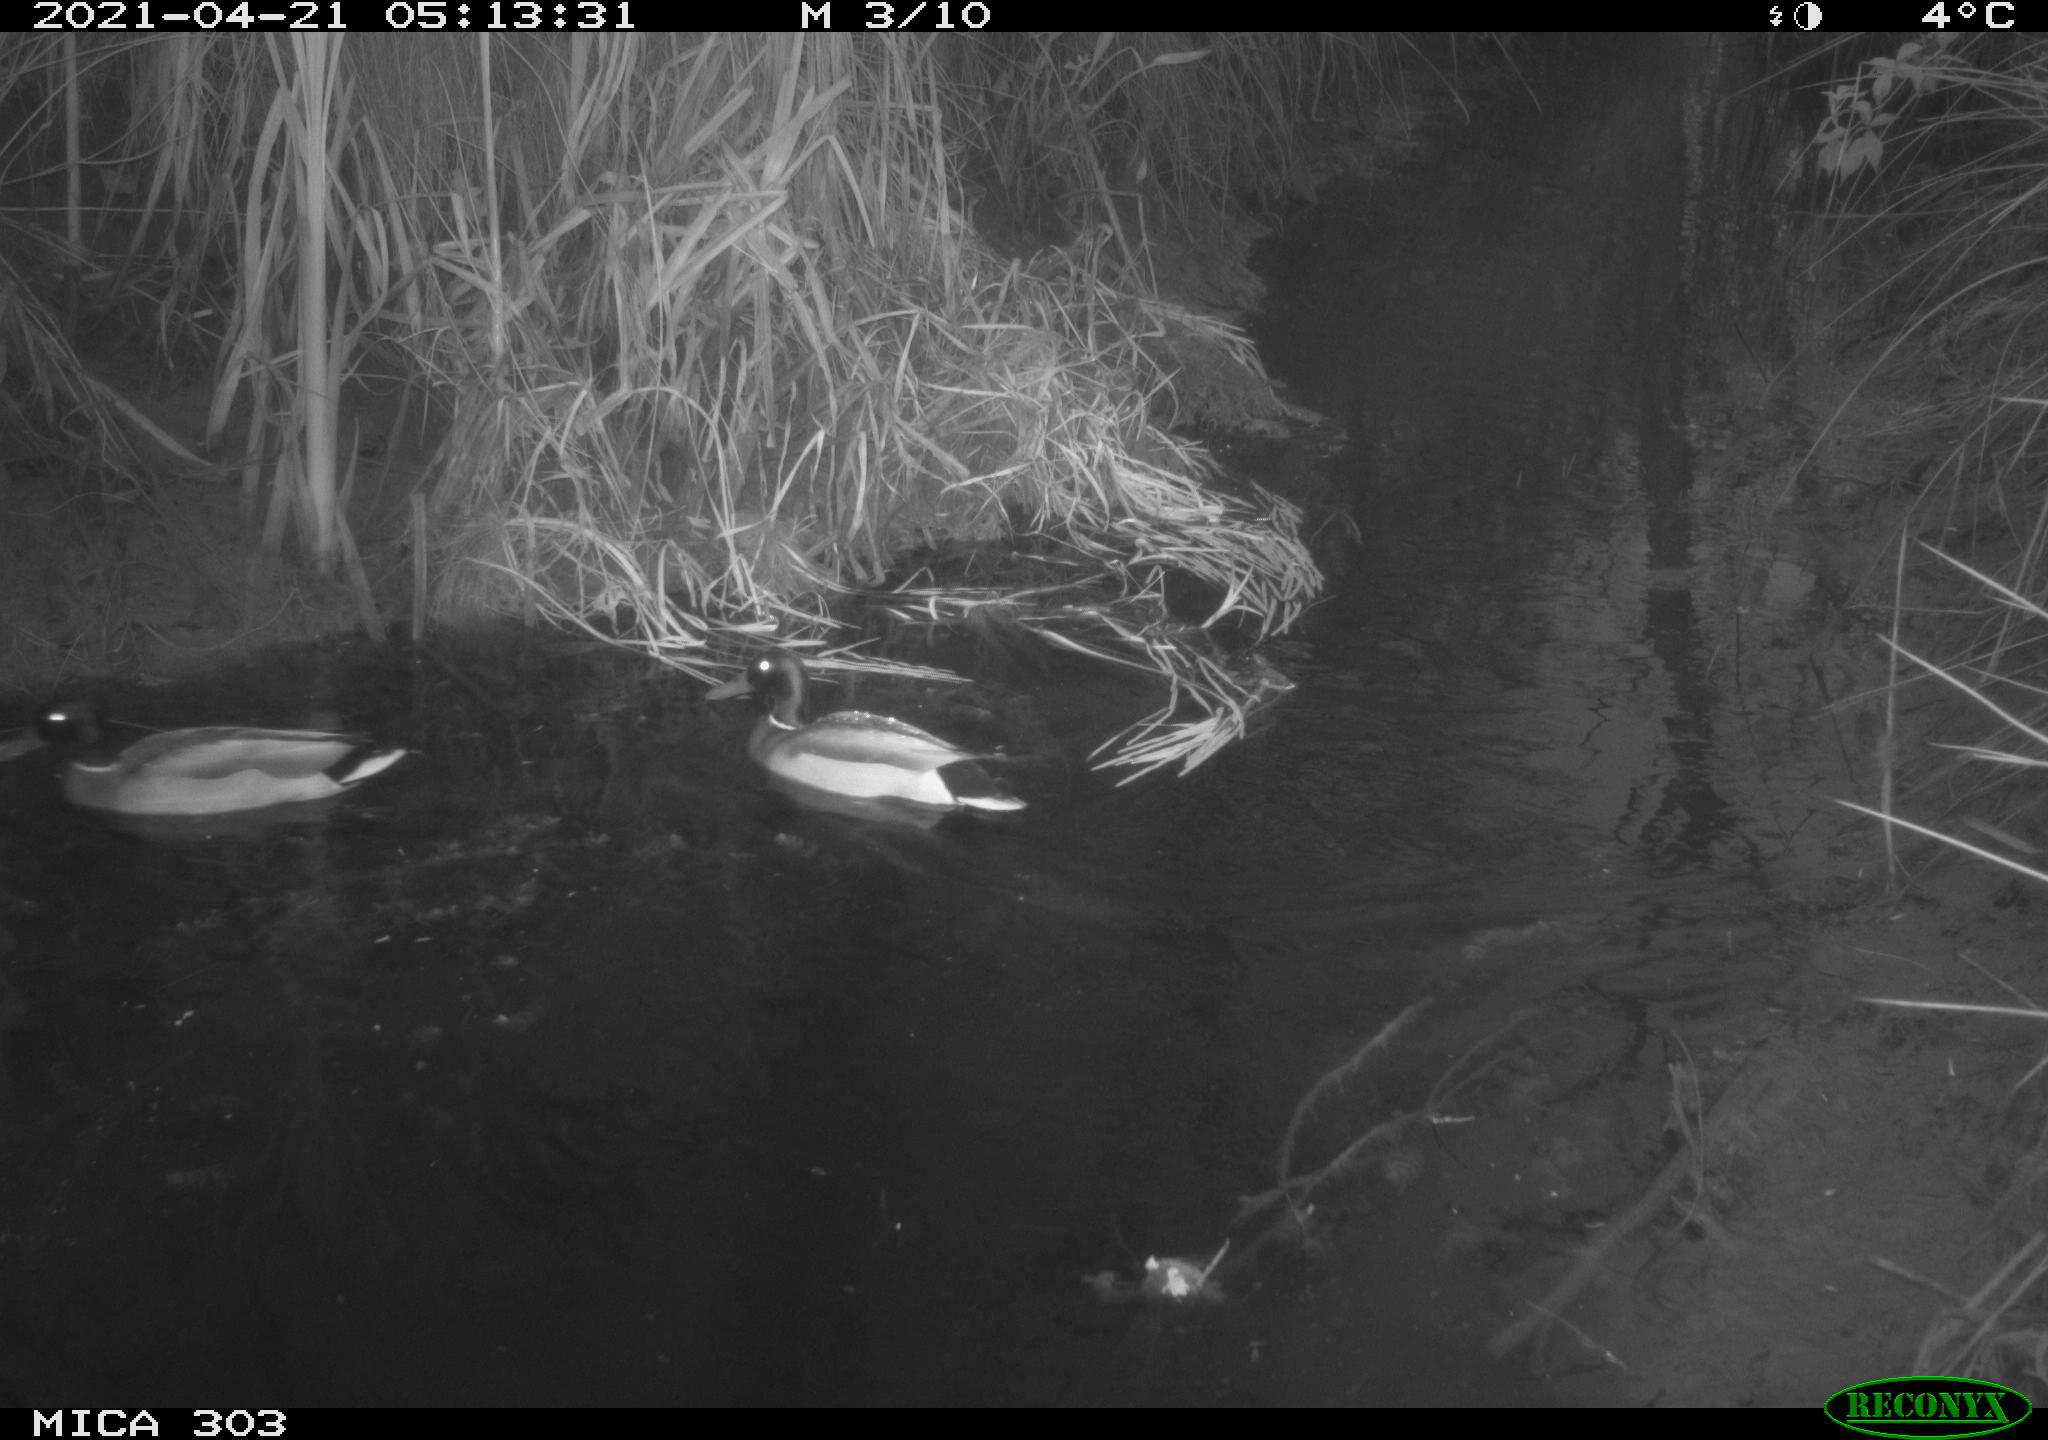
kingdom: Animalia
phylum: Chordata
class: Aves
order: Anseriformes
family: Anatidae
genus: Anas
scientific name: Anas platyrhynchos
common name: Mallard
